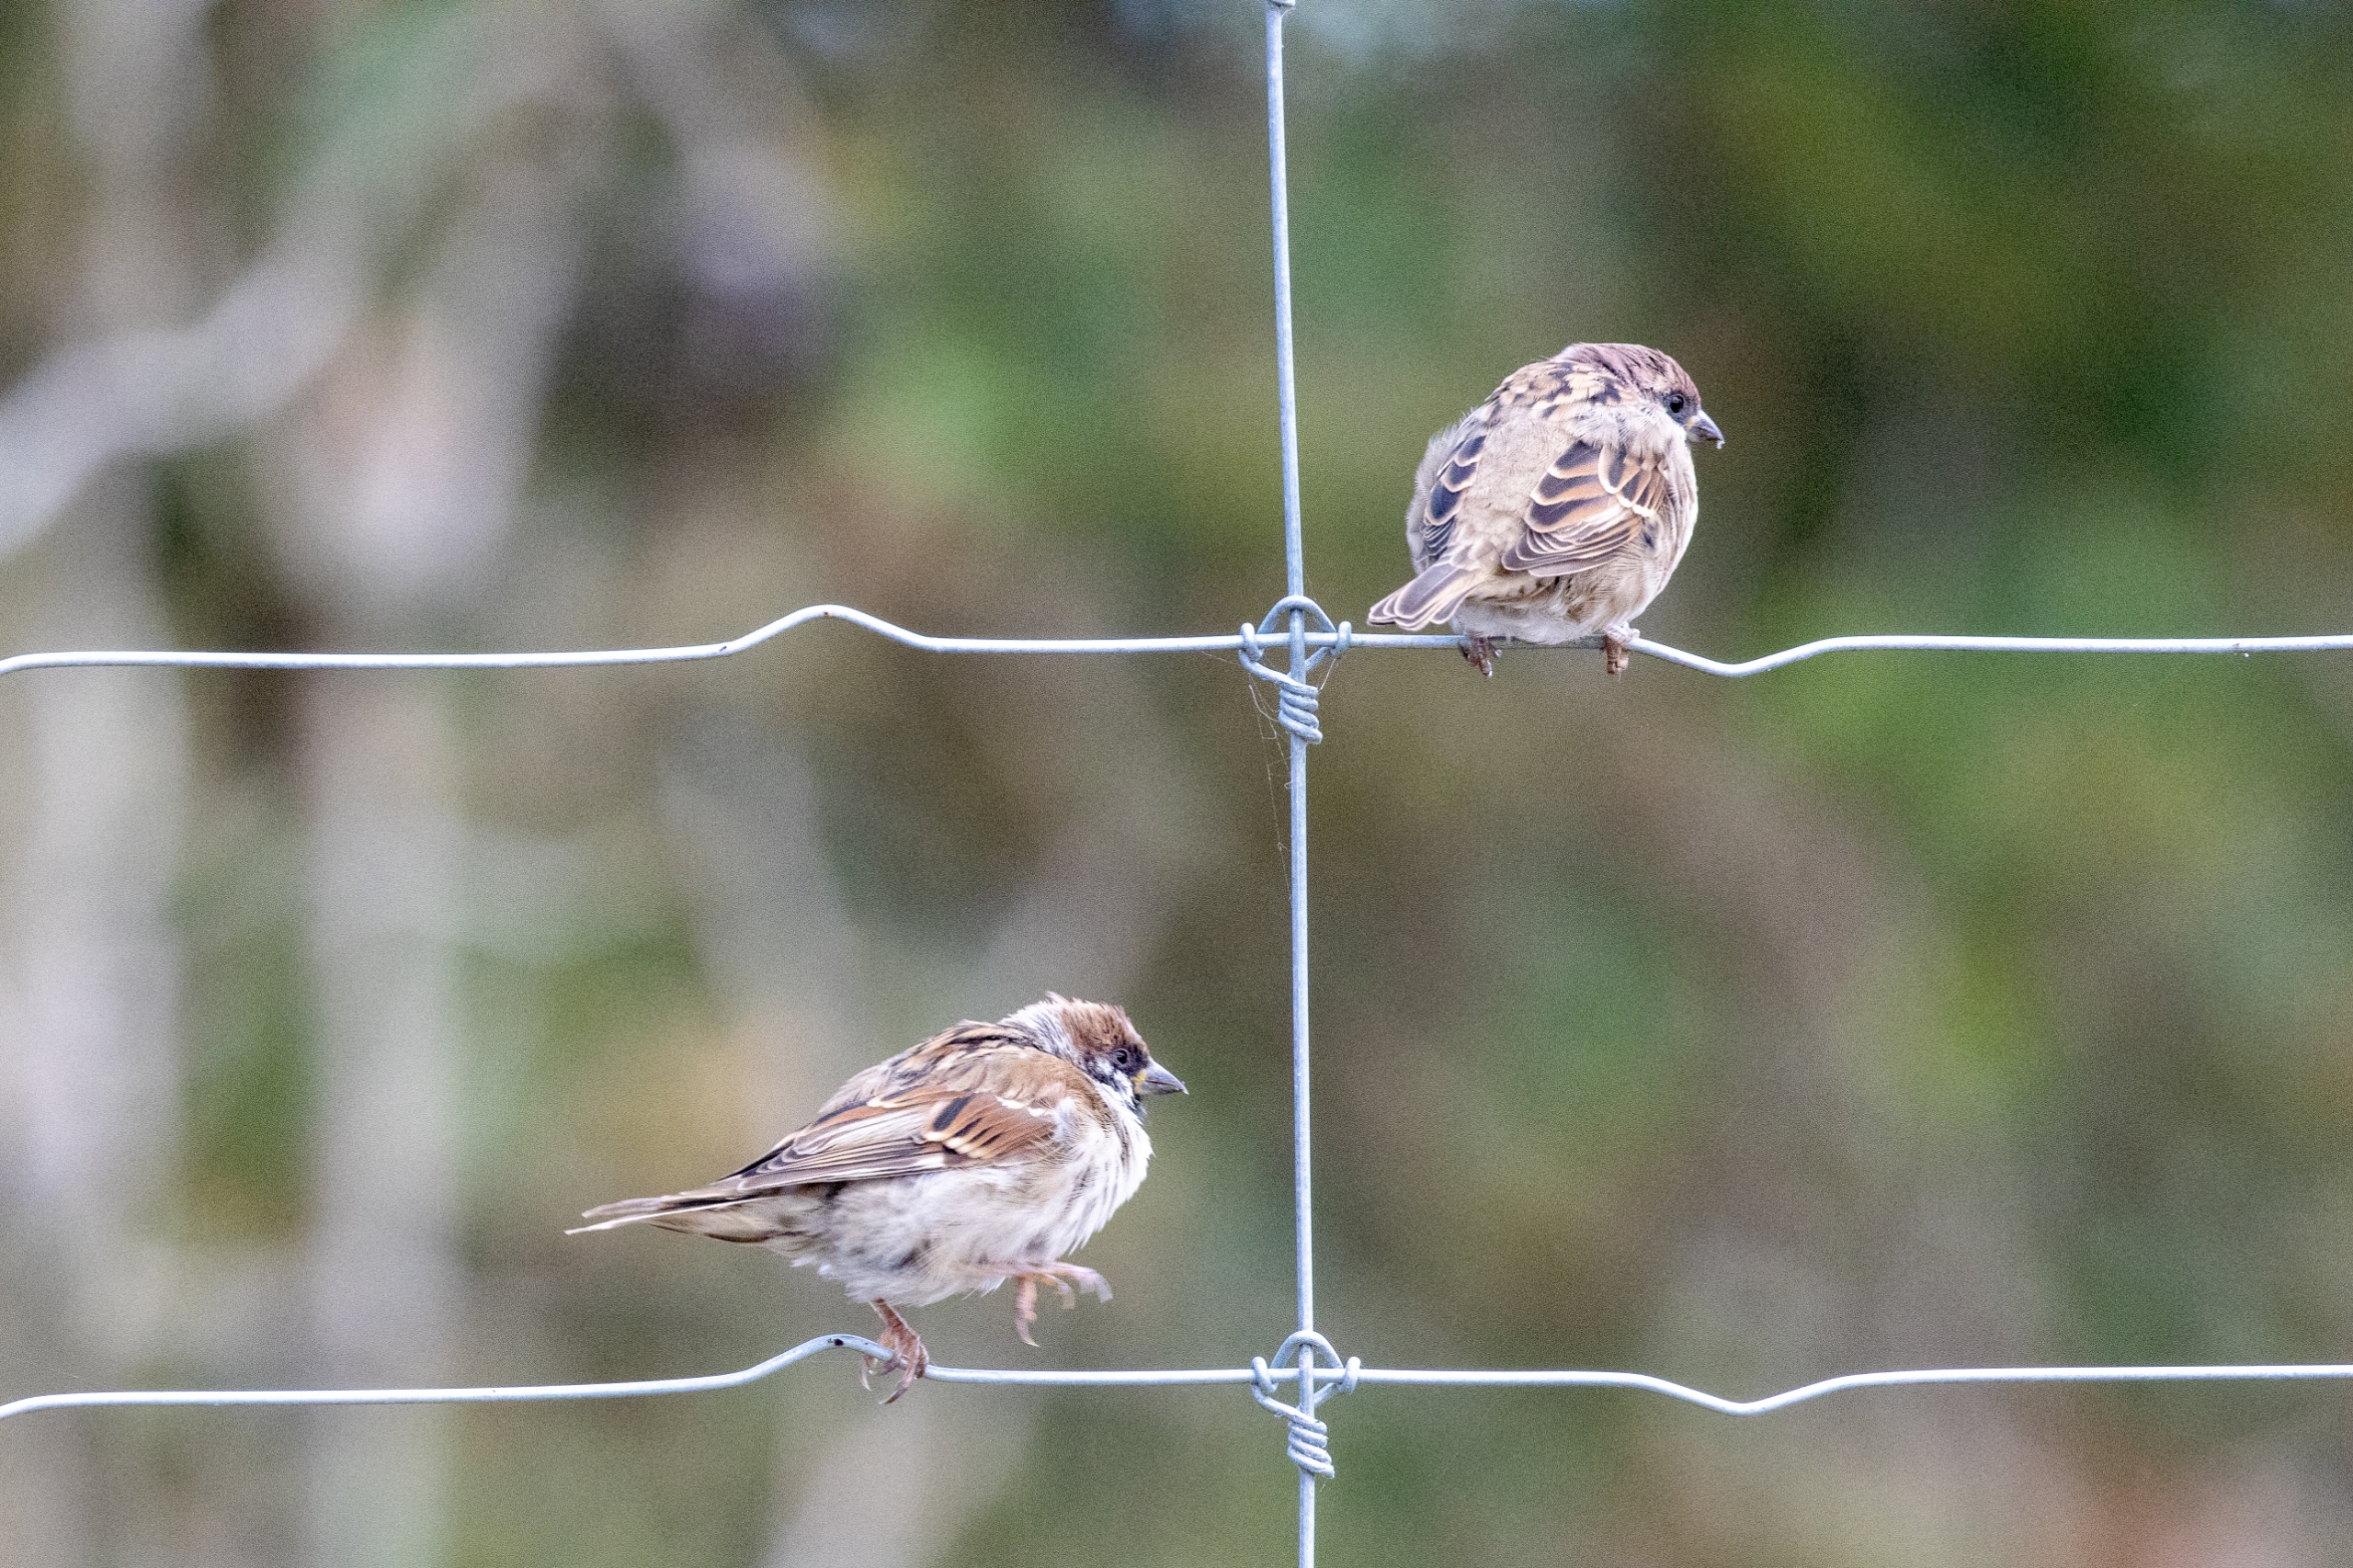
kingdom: Animalia
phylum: Chordata
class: Aves
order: Passeriformes
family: Passeridae
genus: Passer
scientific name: Passer montanus
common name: Skovspurv
